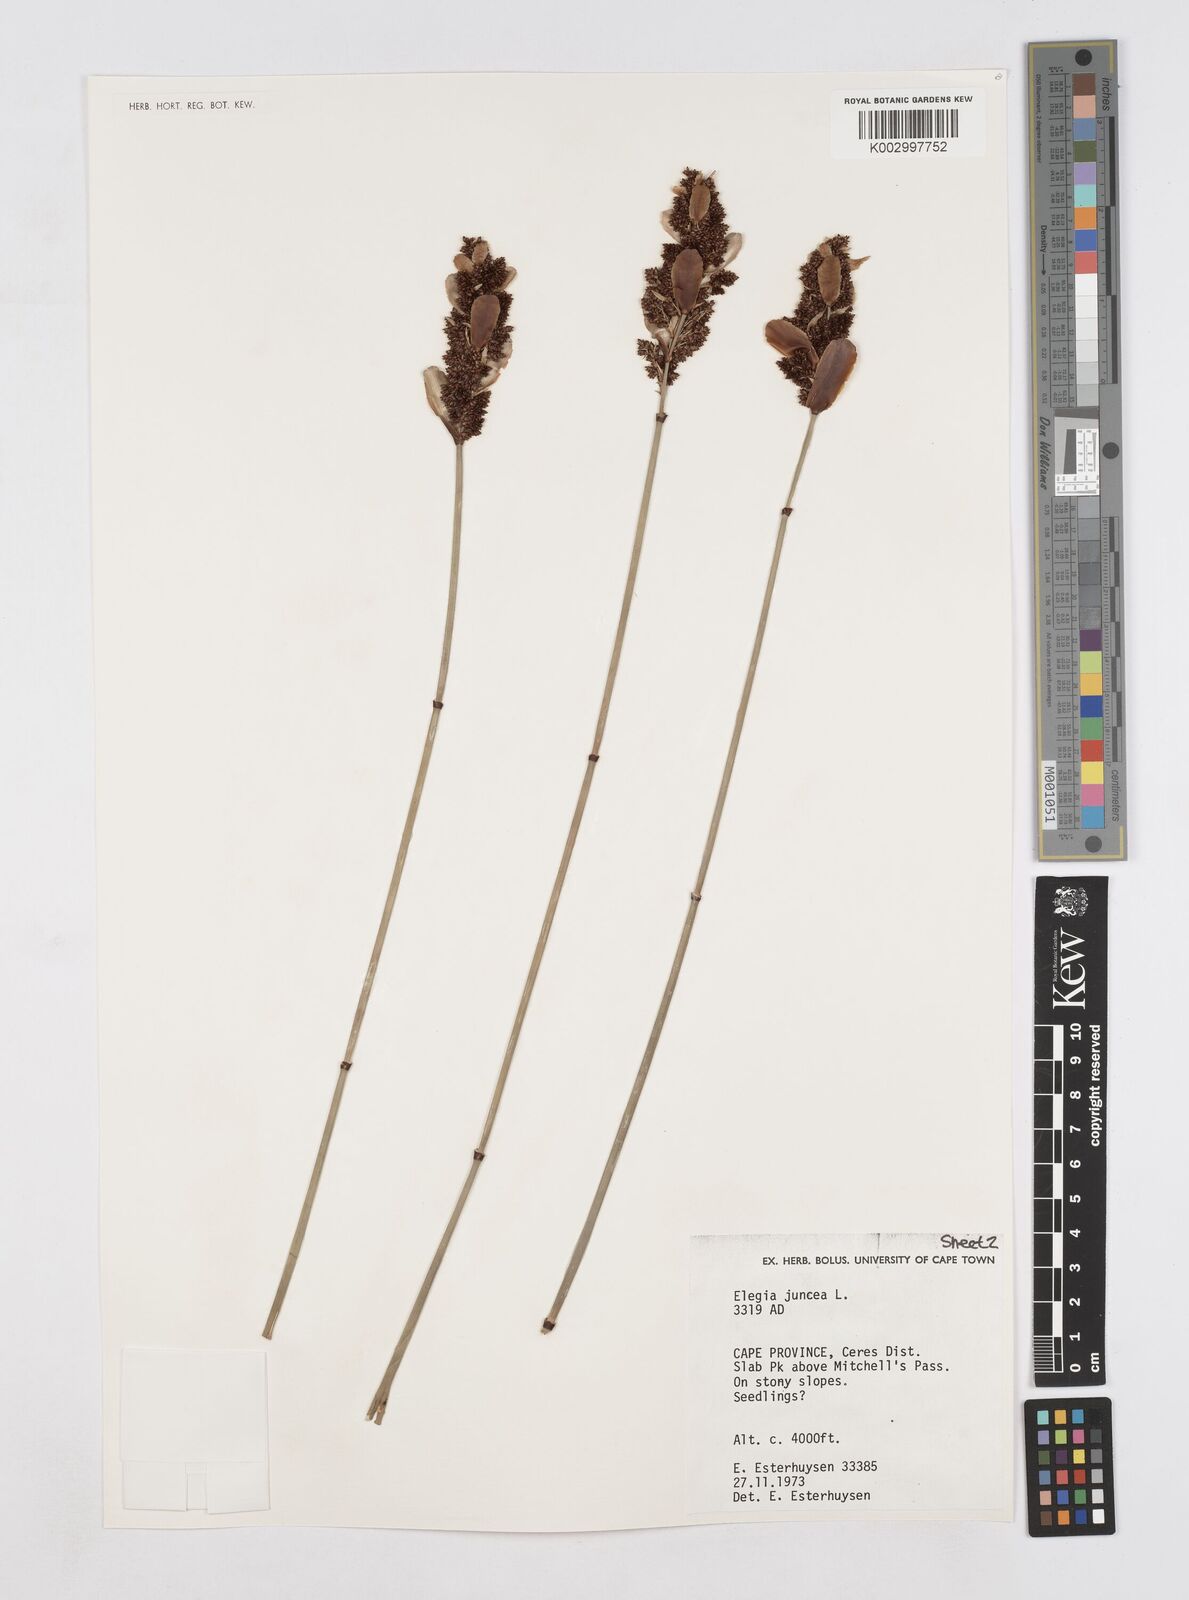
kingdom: Plantae
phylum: Tracheophyta
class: Liliopsida
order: Poales
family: Restionaceae
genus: Elegia
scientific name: Elegia juncea
